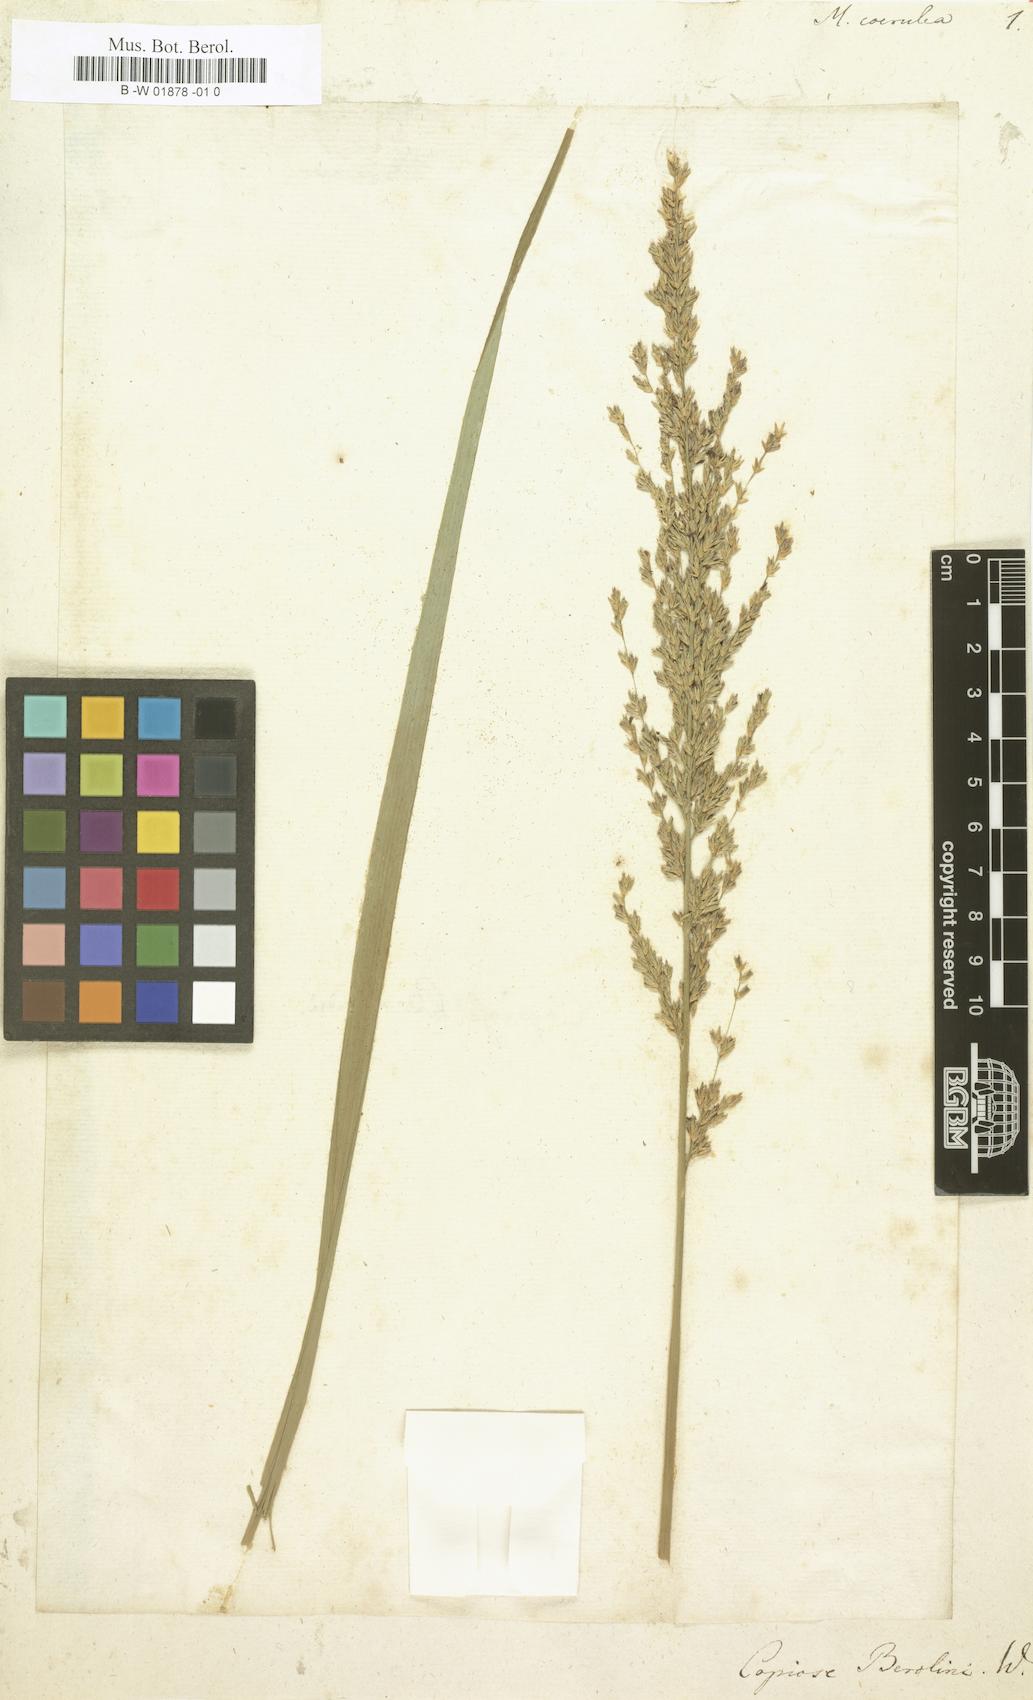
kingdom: Plantae
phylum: Tracheophyta
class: Liliopsida
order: Poales
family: Poaceae
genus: Molinia
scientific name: Molinia caerulea
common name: Purple moor-grass
